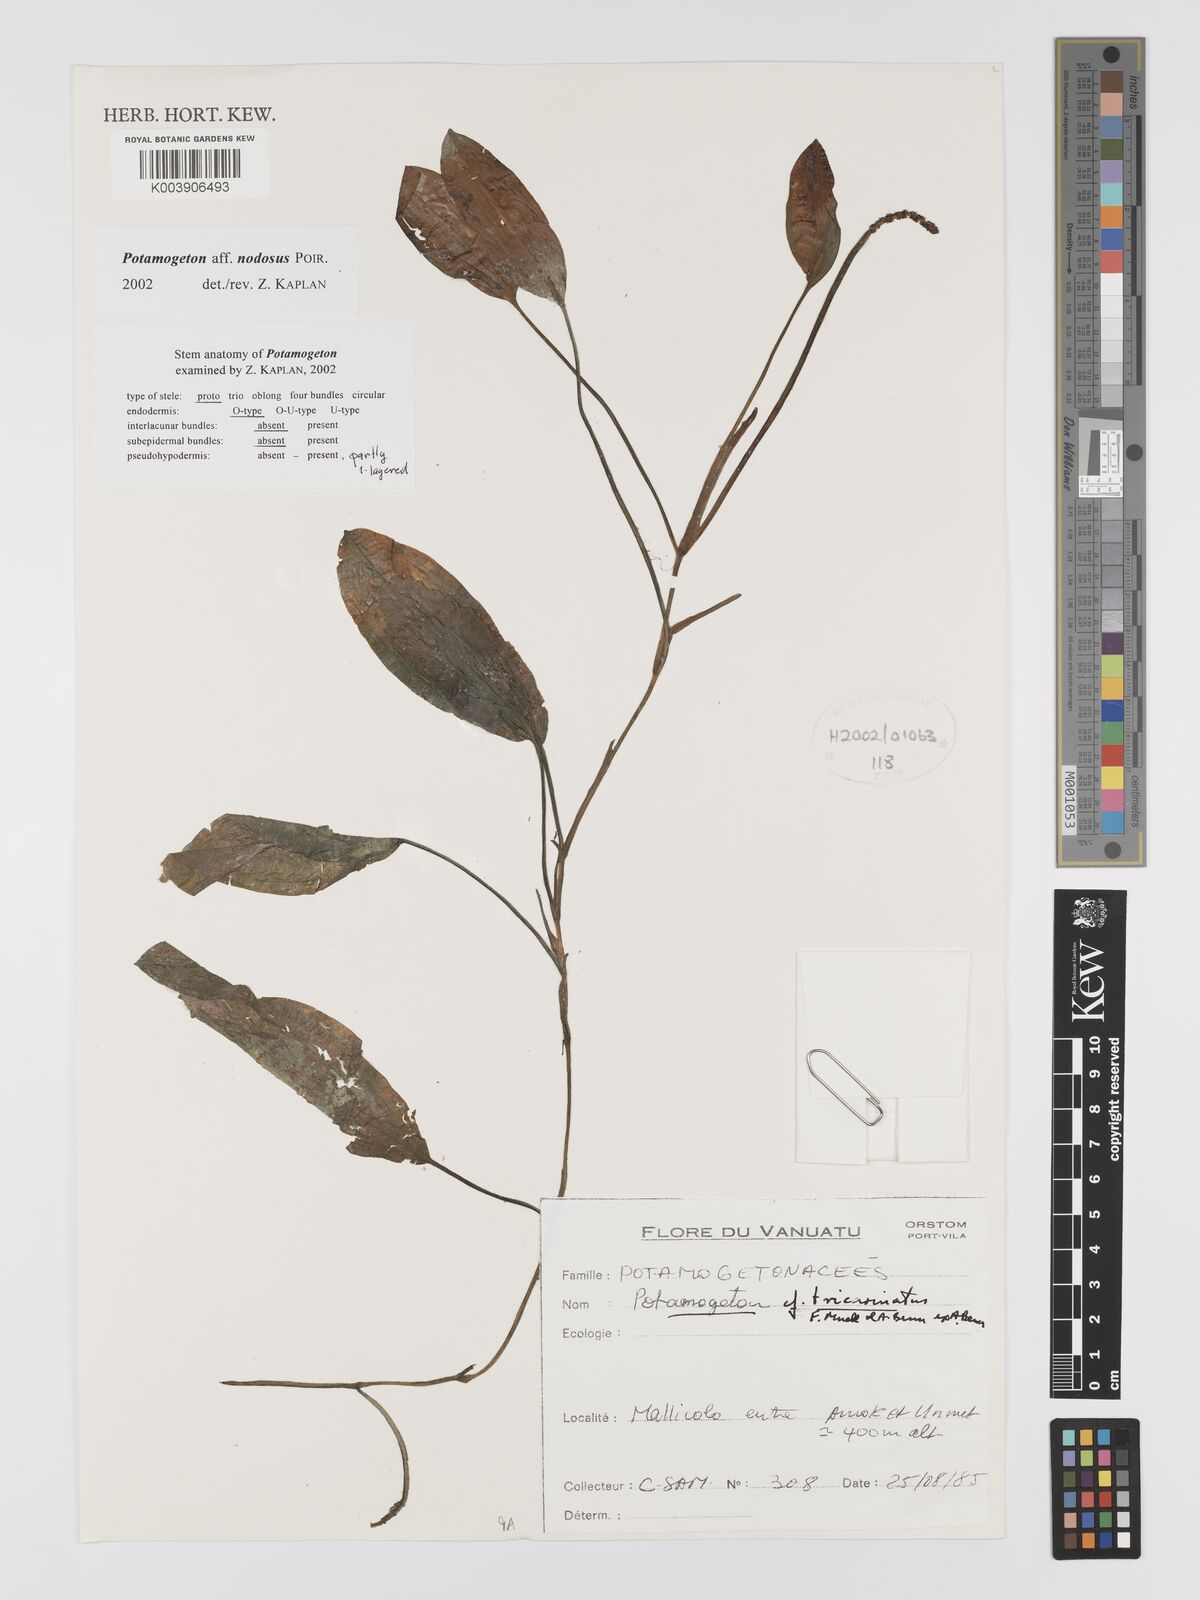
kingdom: Plantae
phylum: Tracheophyta
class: Liliopsida
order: Alismatales
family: Potamogetonaceae
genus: Potamogeton
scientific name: Potamogeton nodosus
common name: Loddon pondweed
